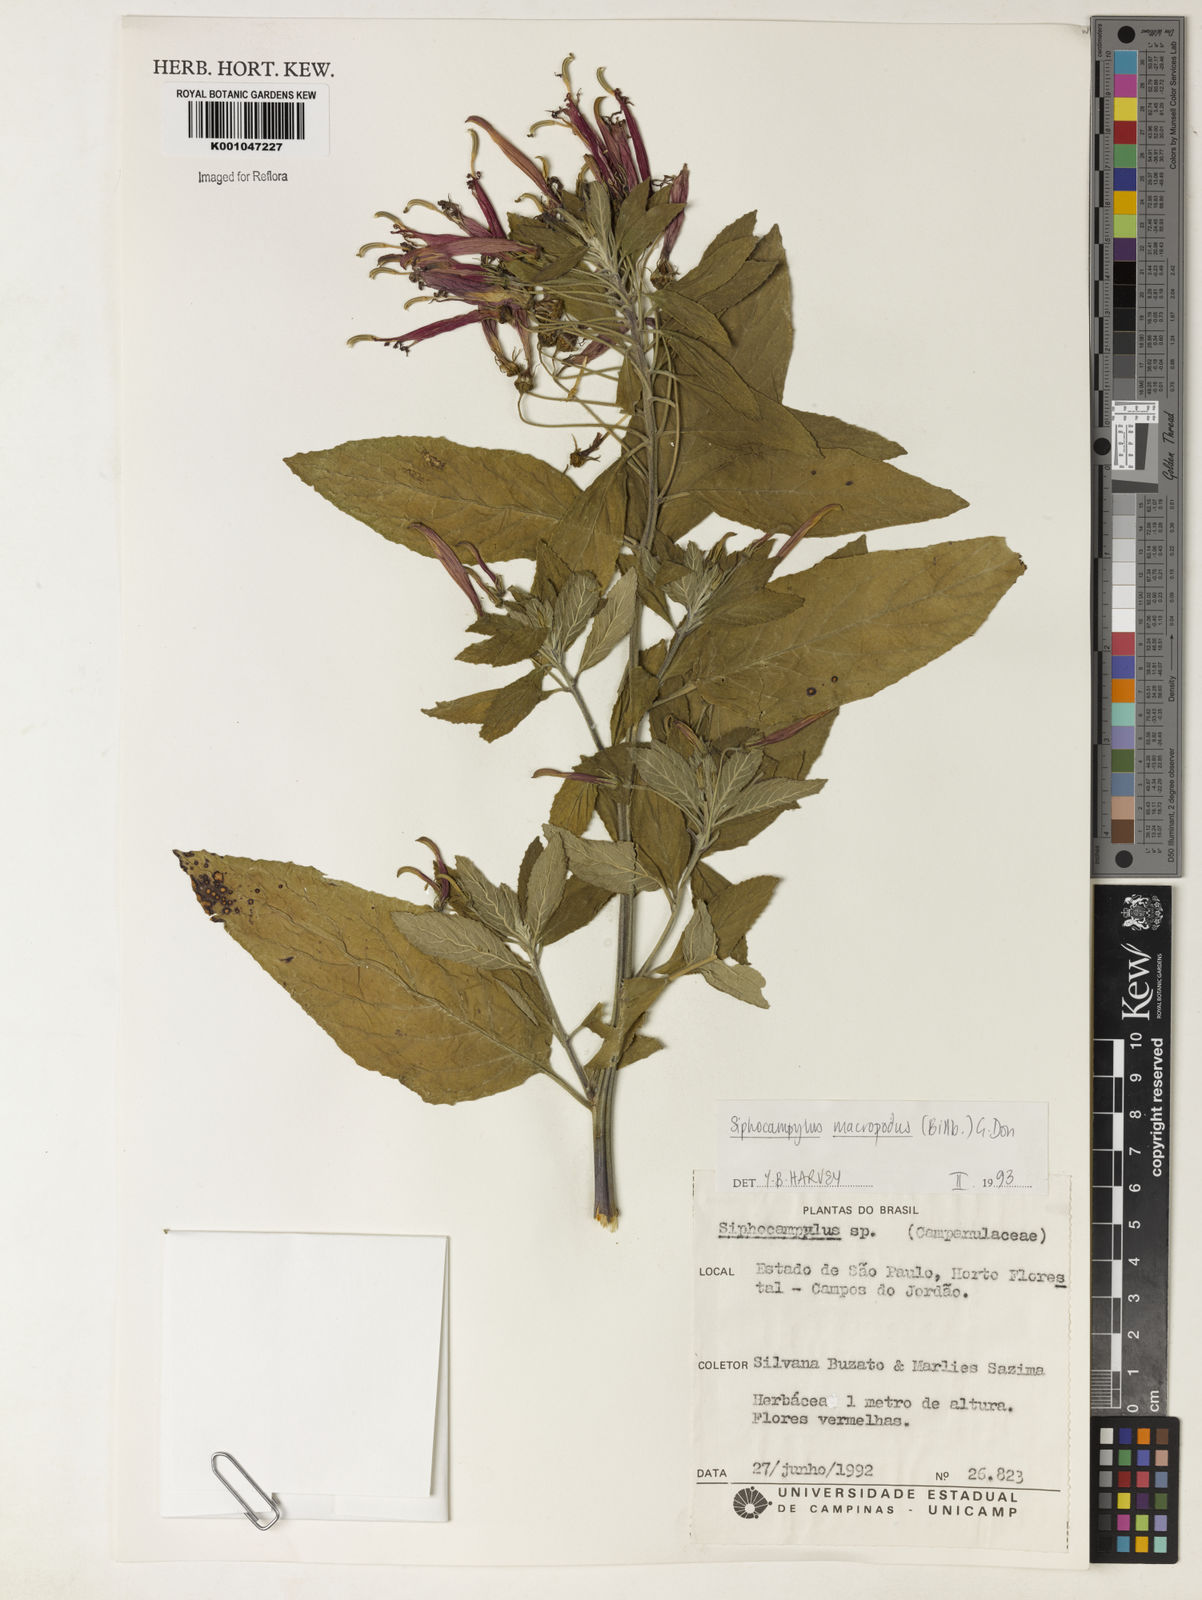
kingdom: Plantae
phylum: Tracheophyta
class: Magnoliopsida
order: Asterales
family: Campanulaceae
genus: Siphocampylus
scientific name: Siphocampylus macropodus
